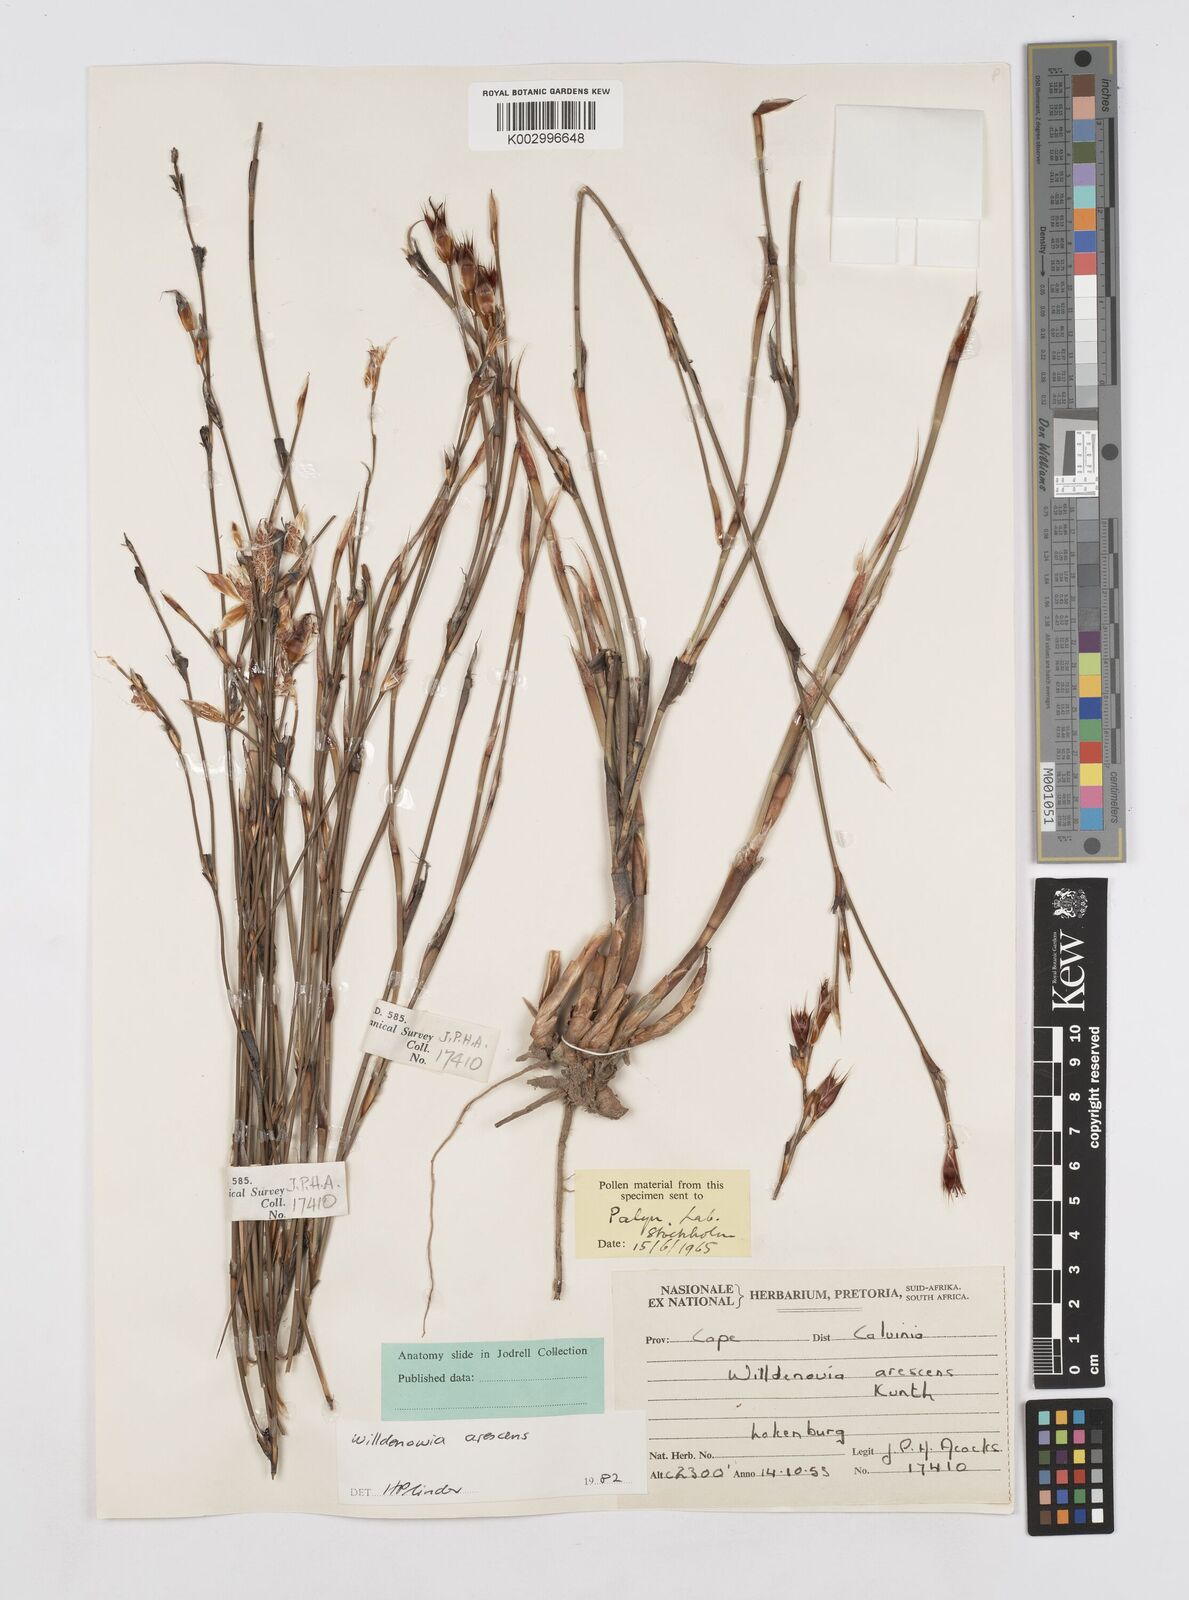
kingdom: Plantae
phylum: Tracheophyta
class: Liliopsida
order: Poales
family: Restionaceae
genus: Willdenowia
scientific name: Willdenowia arescens
